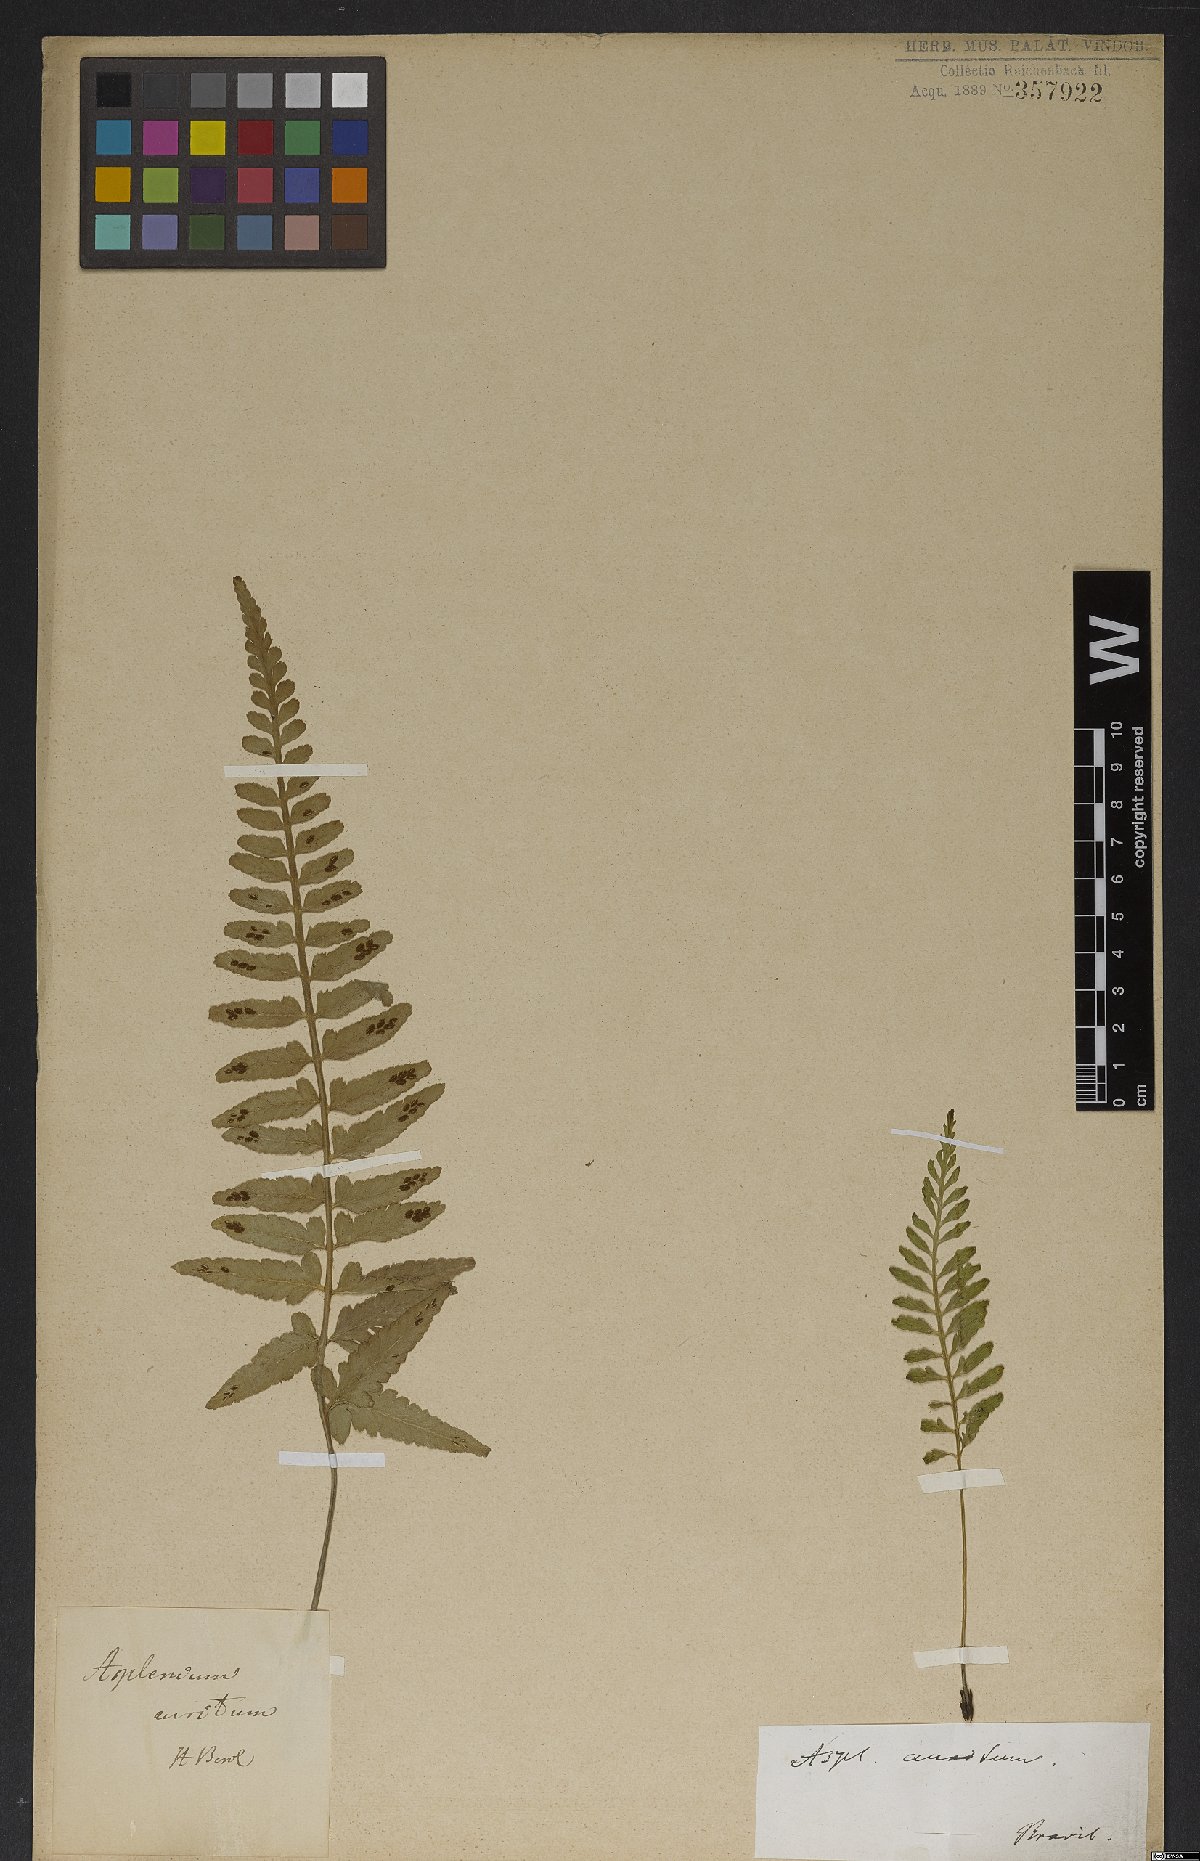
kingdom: Plantae
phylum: Tracheophyta
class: Polypodiopsida
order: Polypodiales
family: Aspleniaceae
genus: Asplenium
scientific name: Asplenium sulcatum
